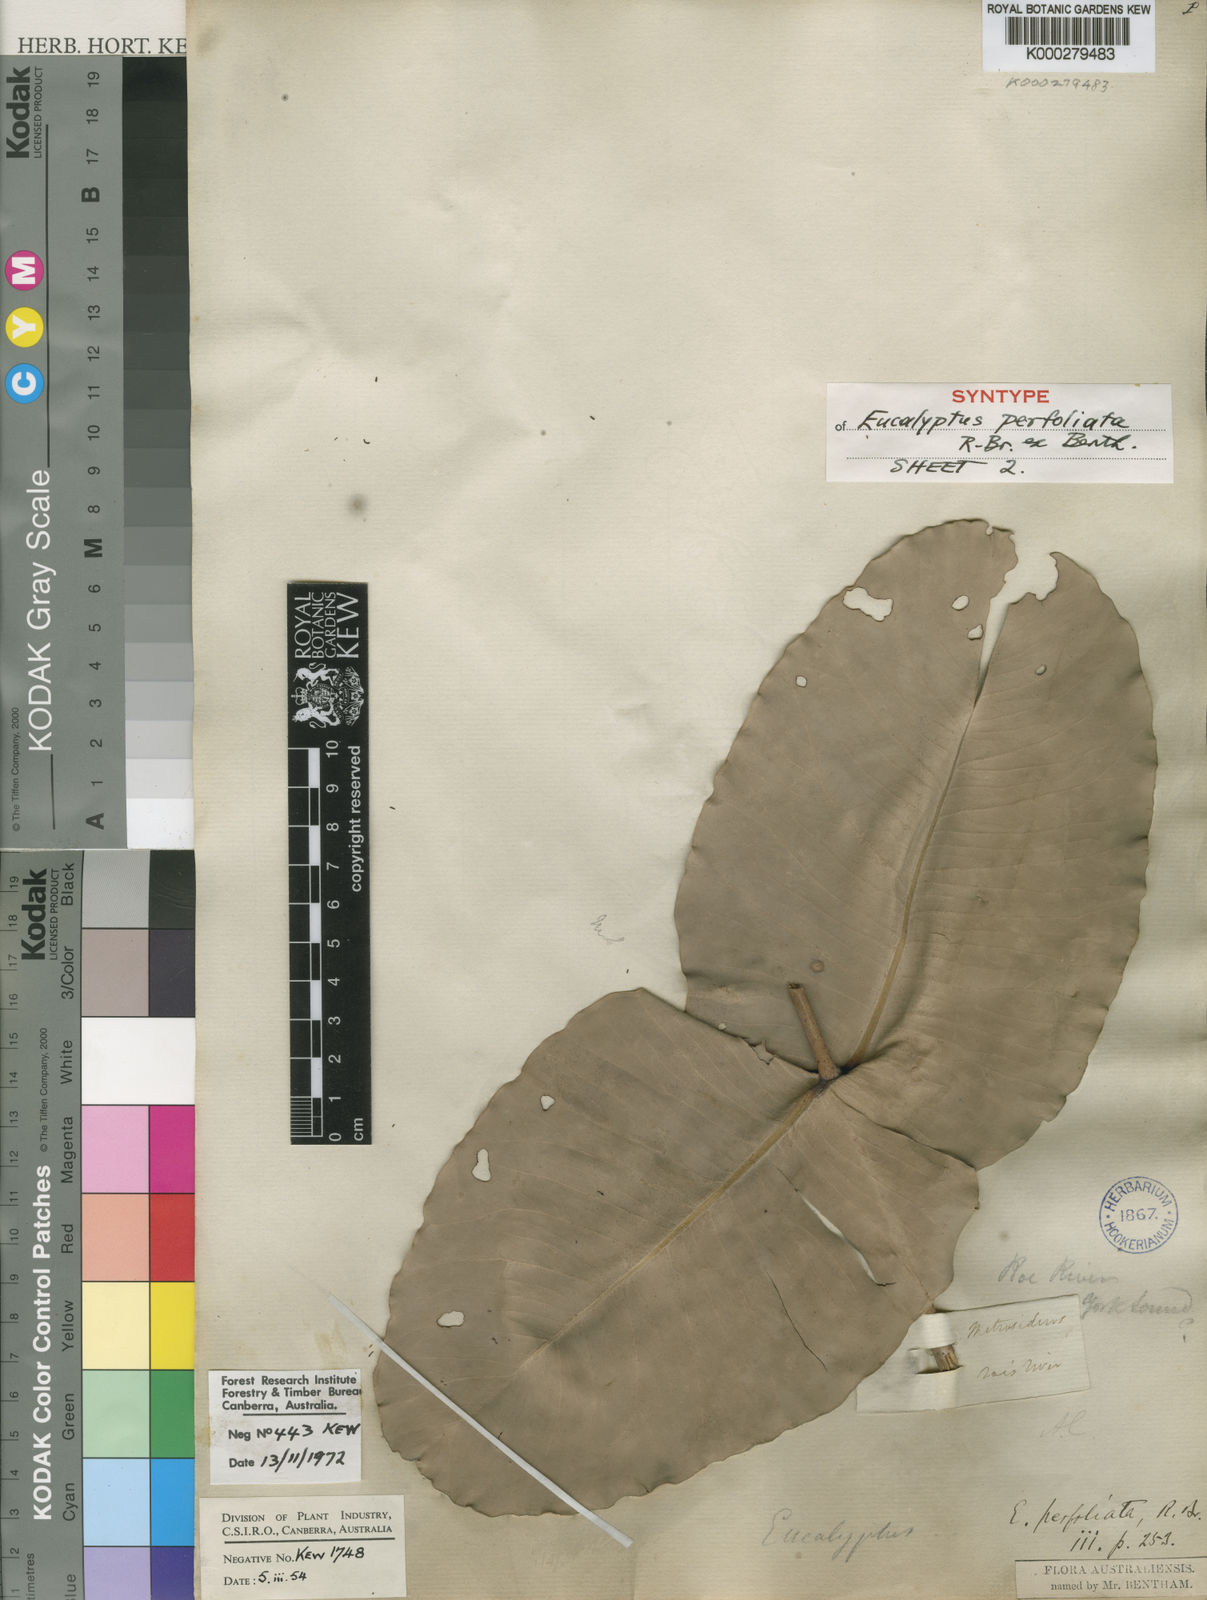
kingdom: Plantae
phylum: Tracheophyta
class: Magnoliopsida
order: Myrtales
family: Myrtaceae
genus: Corymbia
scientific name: Corymbia cadophora
